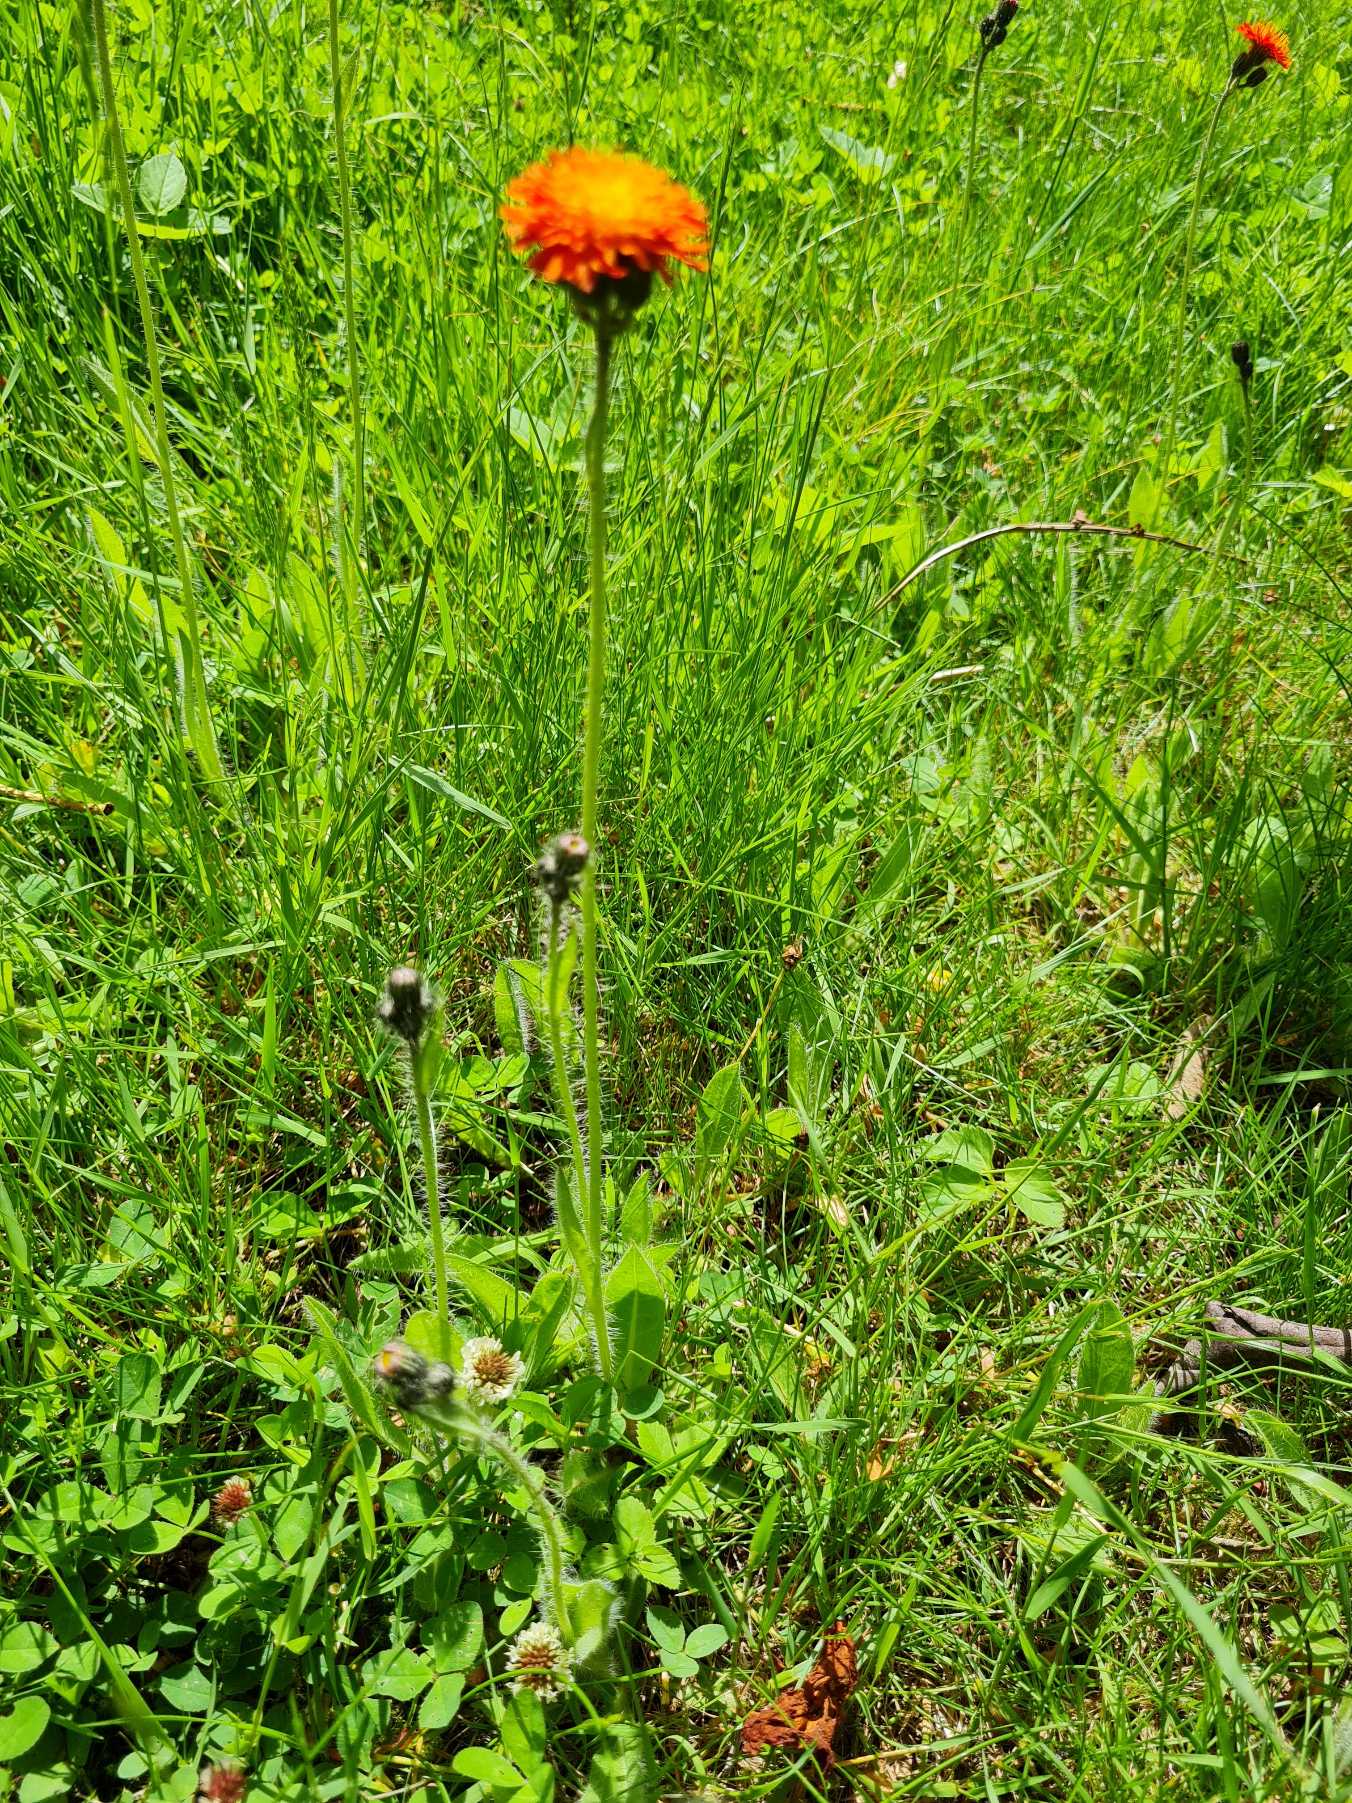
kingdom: Plantae
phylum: Tracheophyta
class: Magnoliopsida
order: Asterales
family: Asteraceae
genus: Pilosella
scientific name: Pilosella aurantiaca
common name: Pomerans-høgeurt
